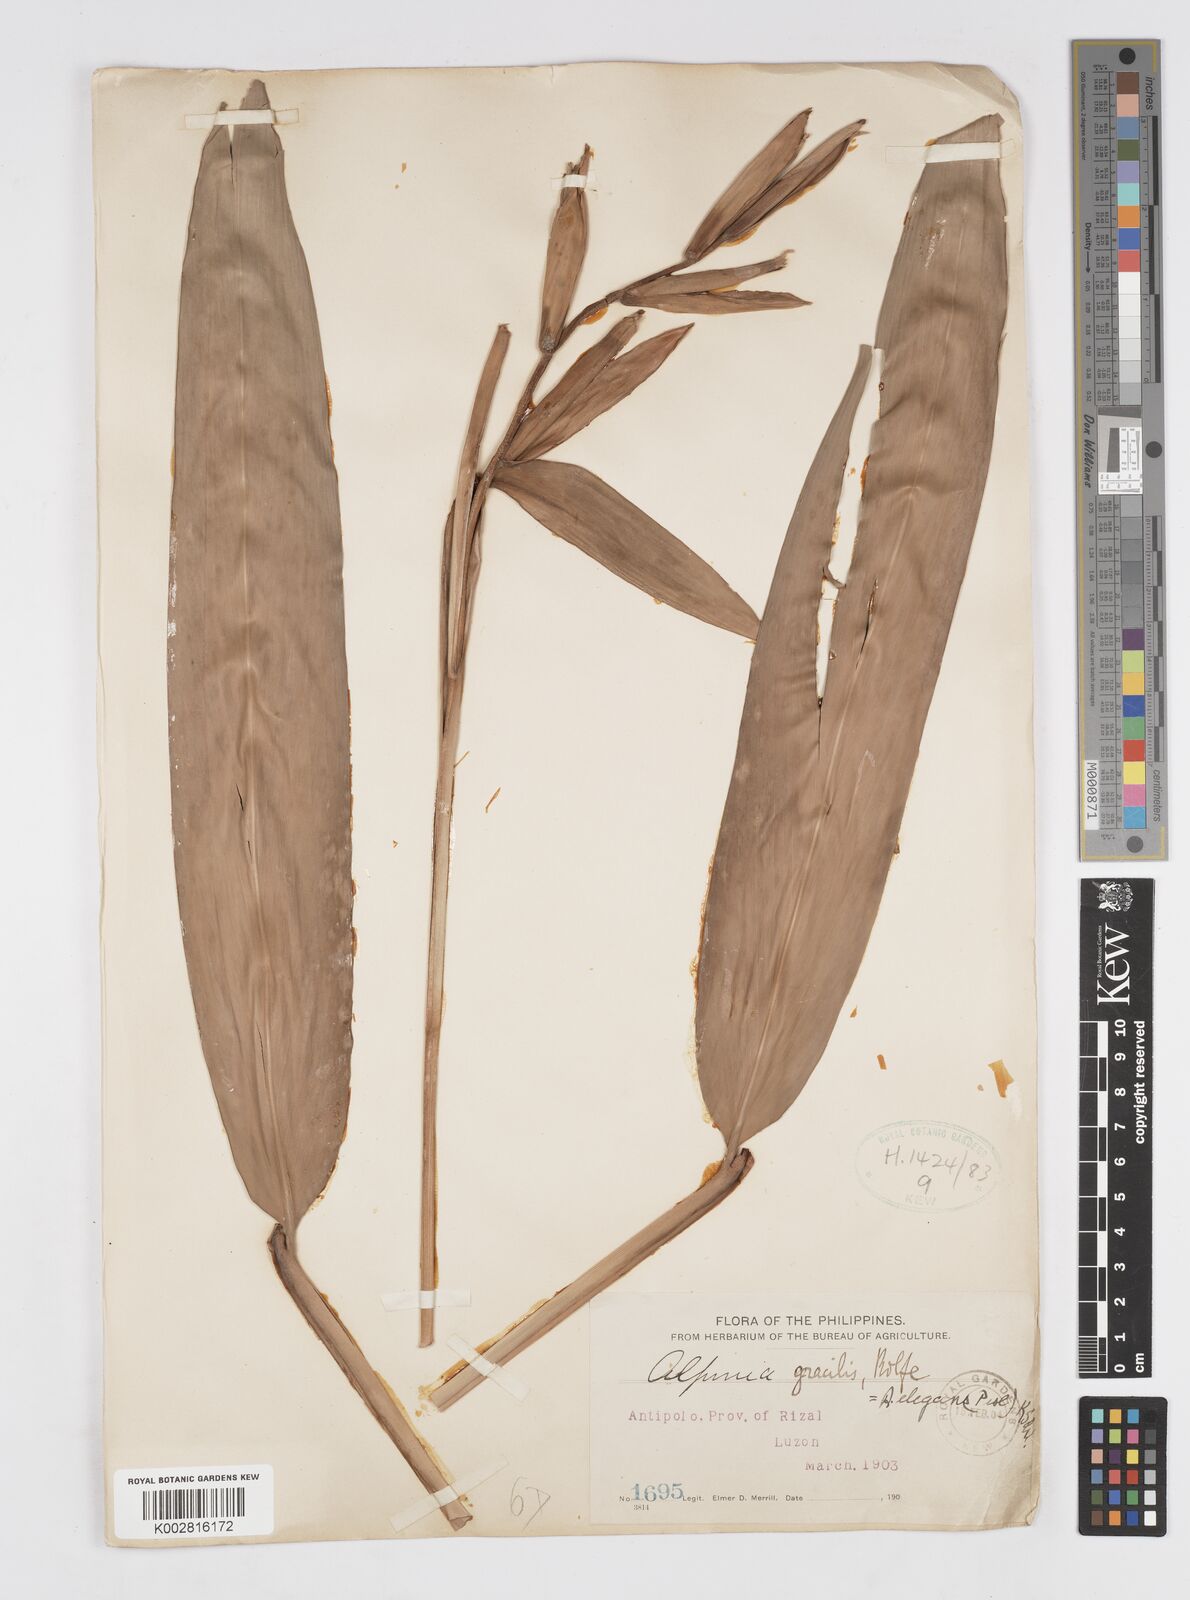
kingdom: Plantae
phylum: Tracheophyta
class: Liliopsida
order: Zingiberales
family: Zingiberaceae
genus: Alpinia
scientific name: Alpinia elegans
